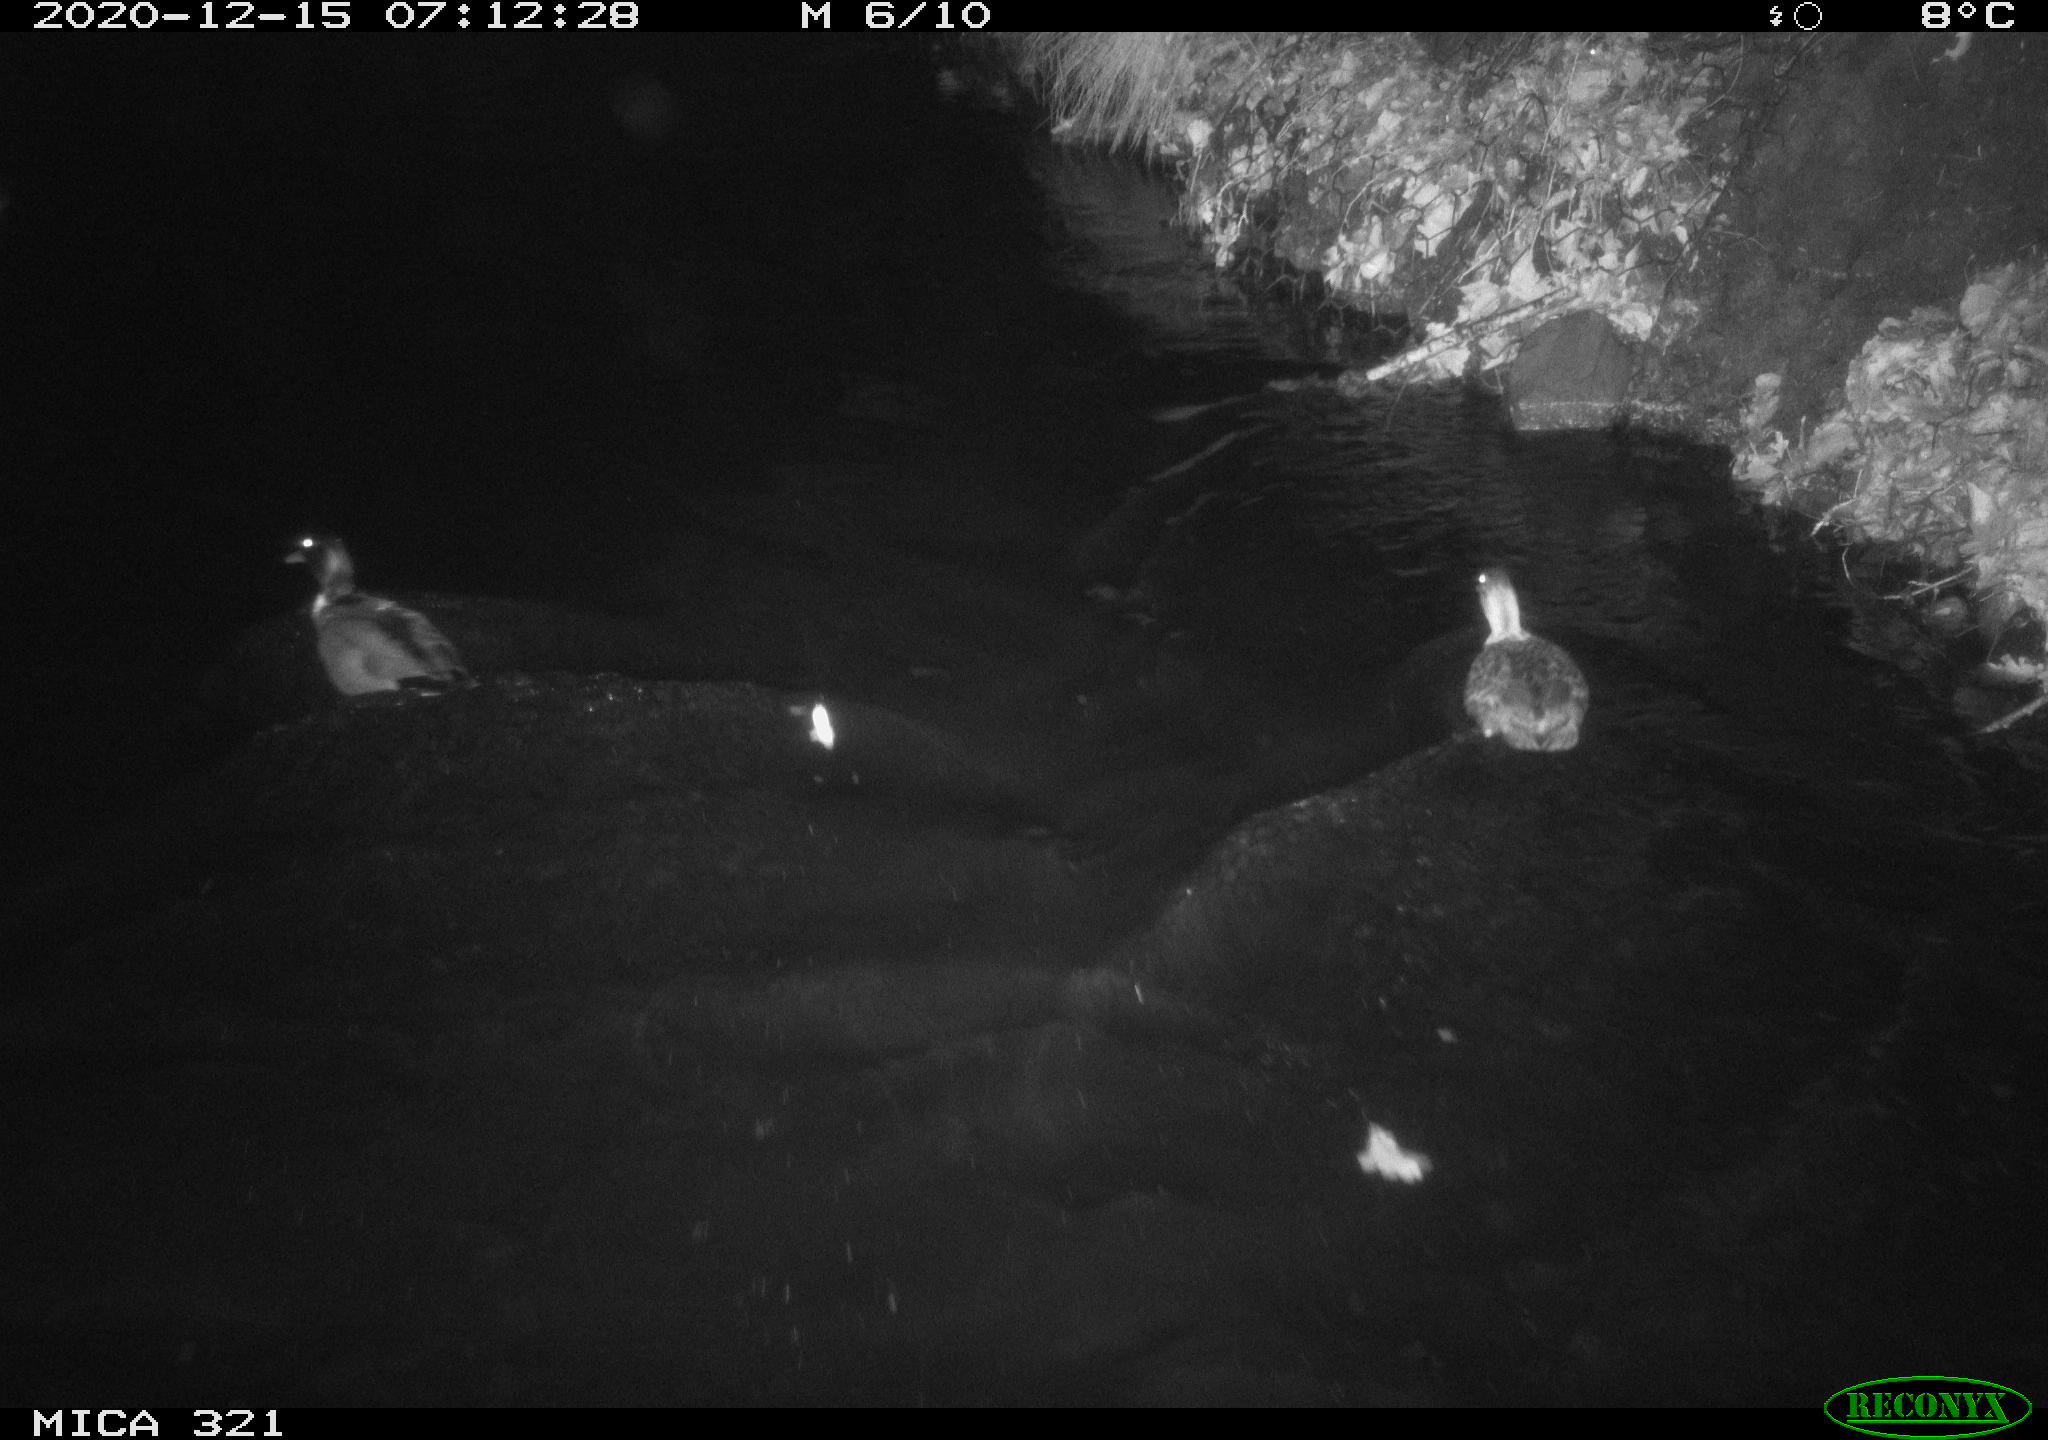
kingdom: Animalia
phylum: Chordata
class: Aves
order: Anseriformes
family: Anatidae
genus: Anas
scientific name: Anas platyrhynchos
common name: Mallard
